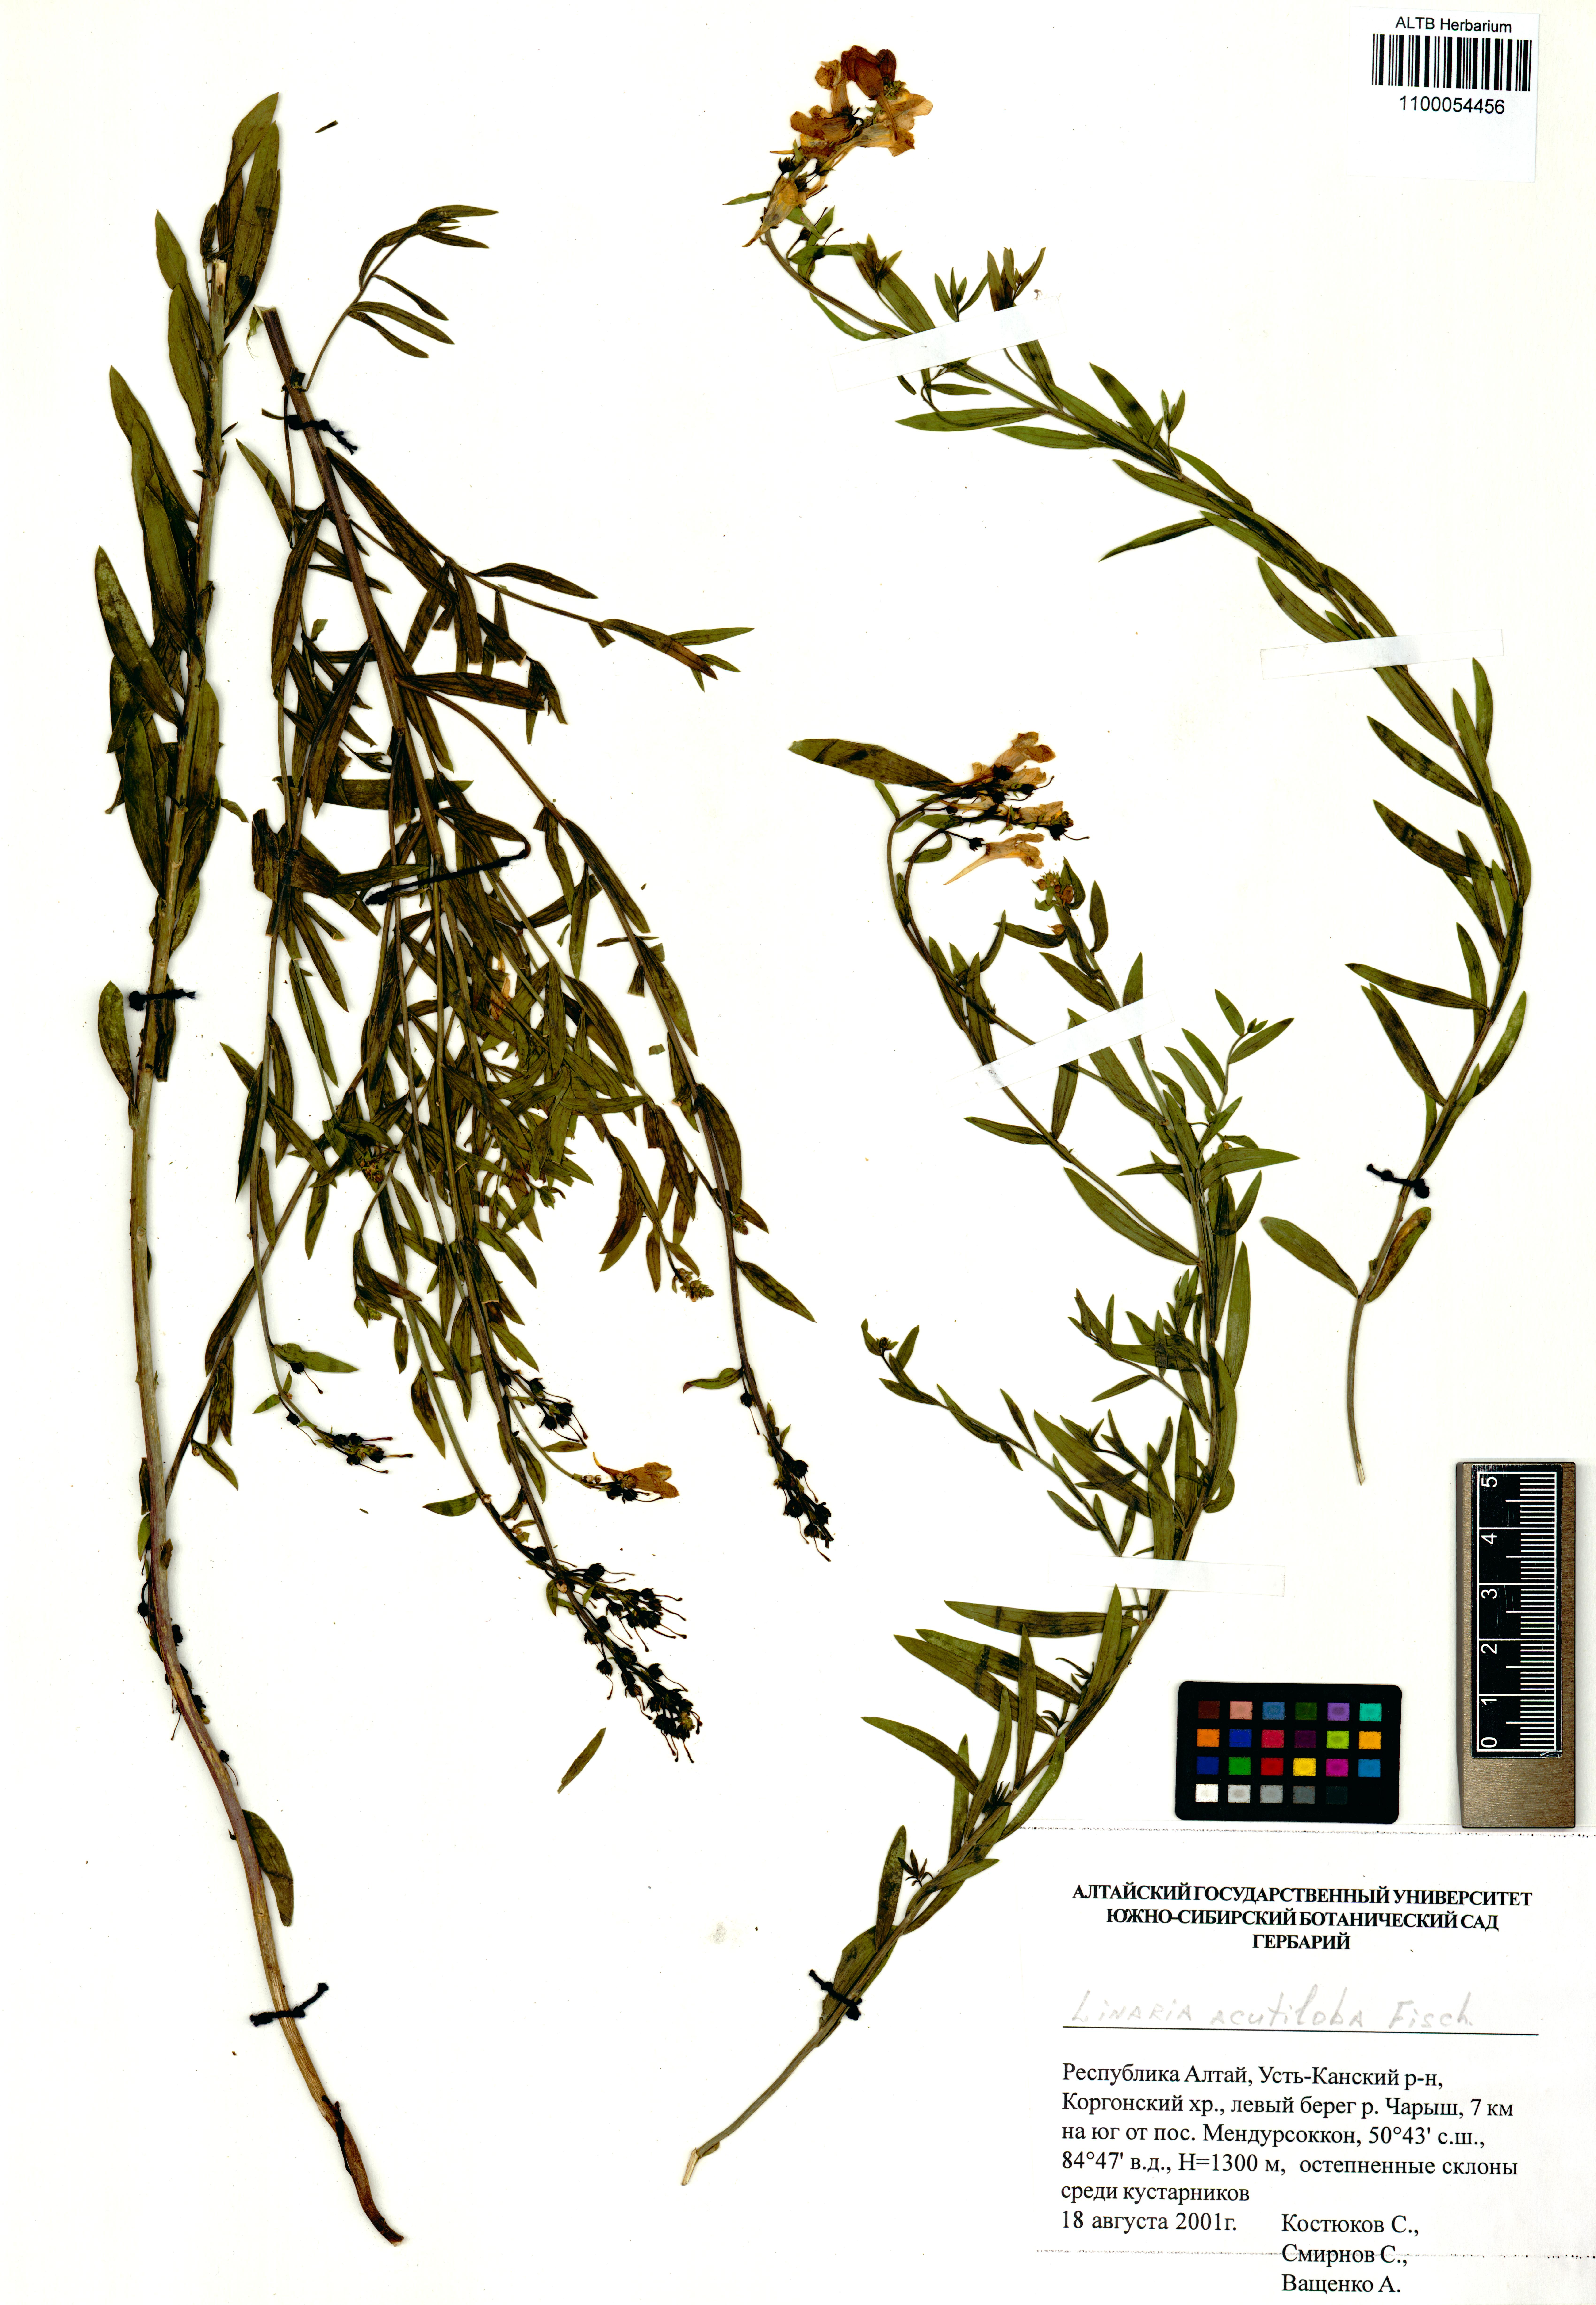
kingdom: Plantae
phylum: Tracheophyta
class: Magnoliopsida
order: Lamiales
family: Plantaginaceae
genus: Linaria
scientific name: Linaria acutiloba
